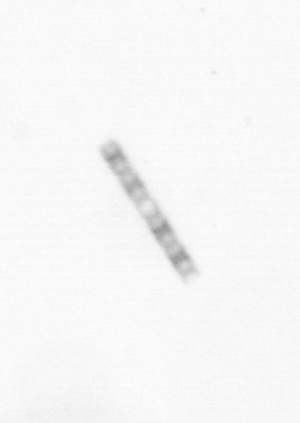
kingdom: Chromista
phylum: Ochrophyta
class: Bacillariophyceae
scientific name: Bacillariophyceae
